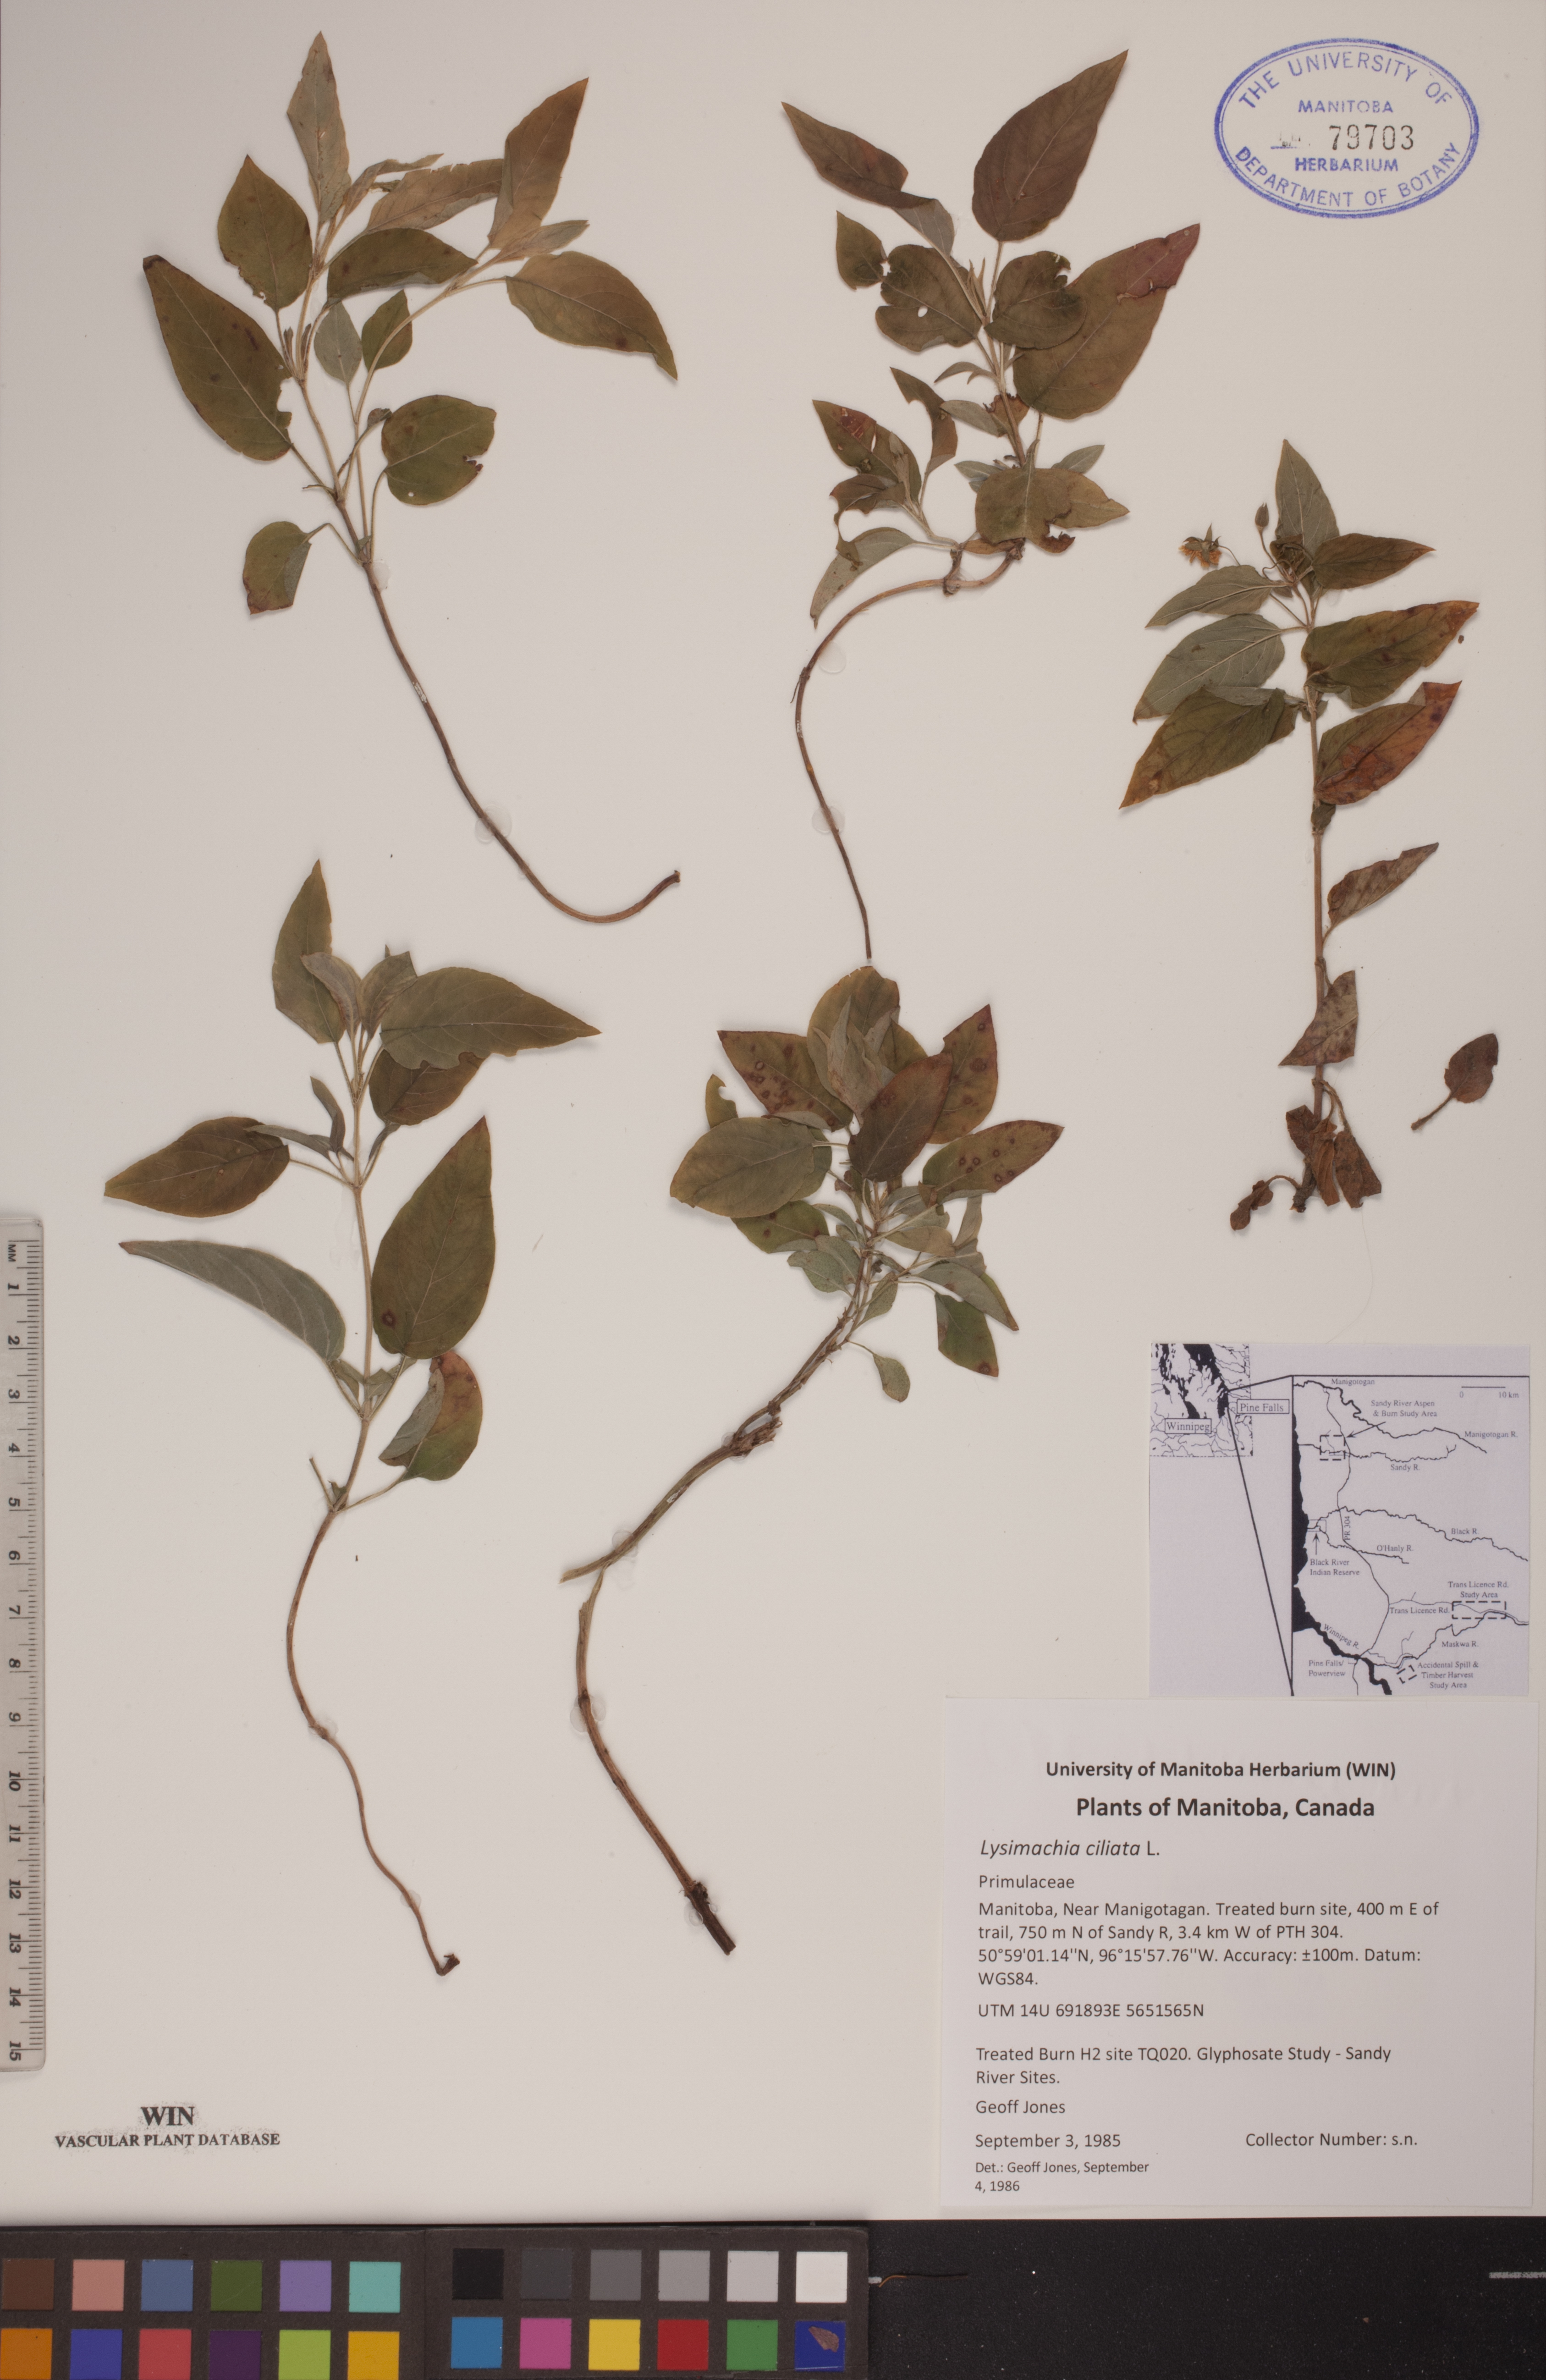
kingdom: Plantae
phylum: Tracheophyta
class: Magnoliopsida
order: Ericales
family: Primulaceae
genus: Lysimachia
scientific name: Lysimachia ciliata
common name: Fringed loosestrife
